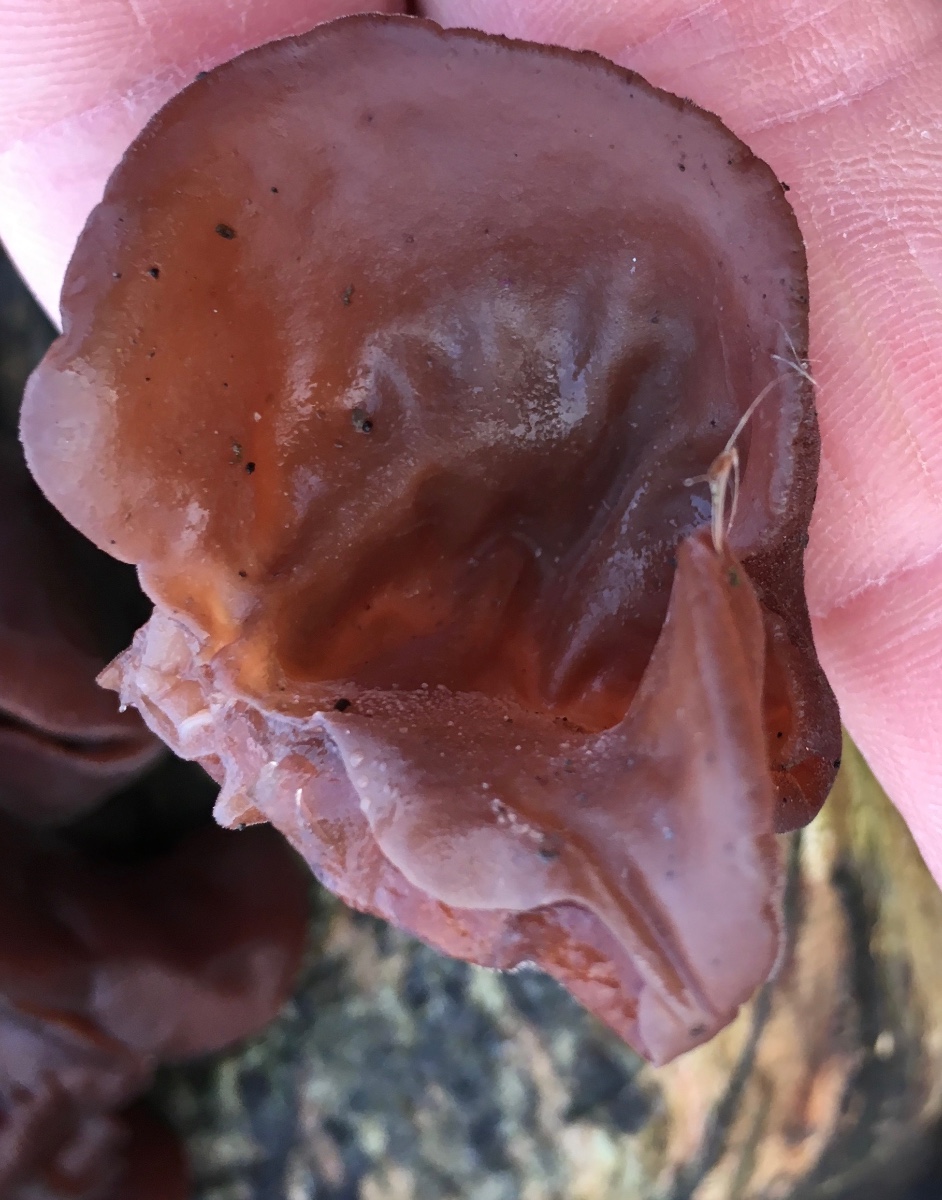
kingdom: Fungi
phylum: Basidiomycota
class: Agaricomycetes
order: Auriculariales
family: Auriculariaceae
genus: Auricularia
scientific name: Auricularia auricula-judae
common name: almindelig judasøre
